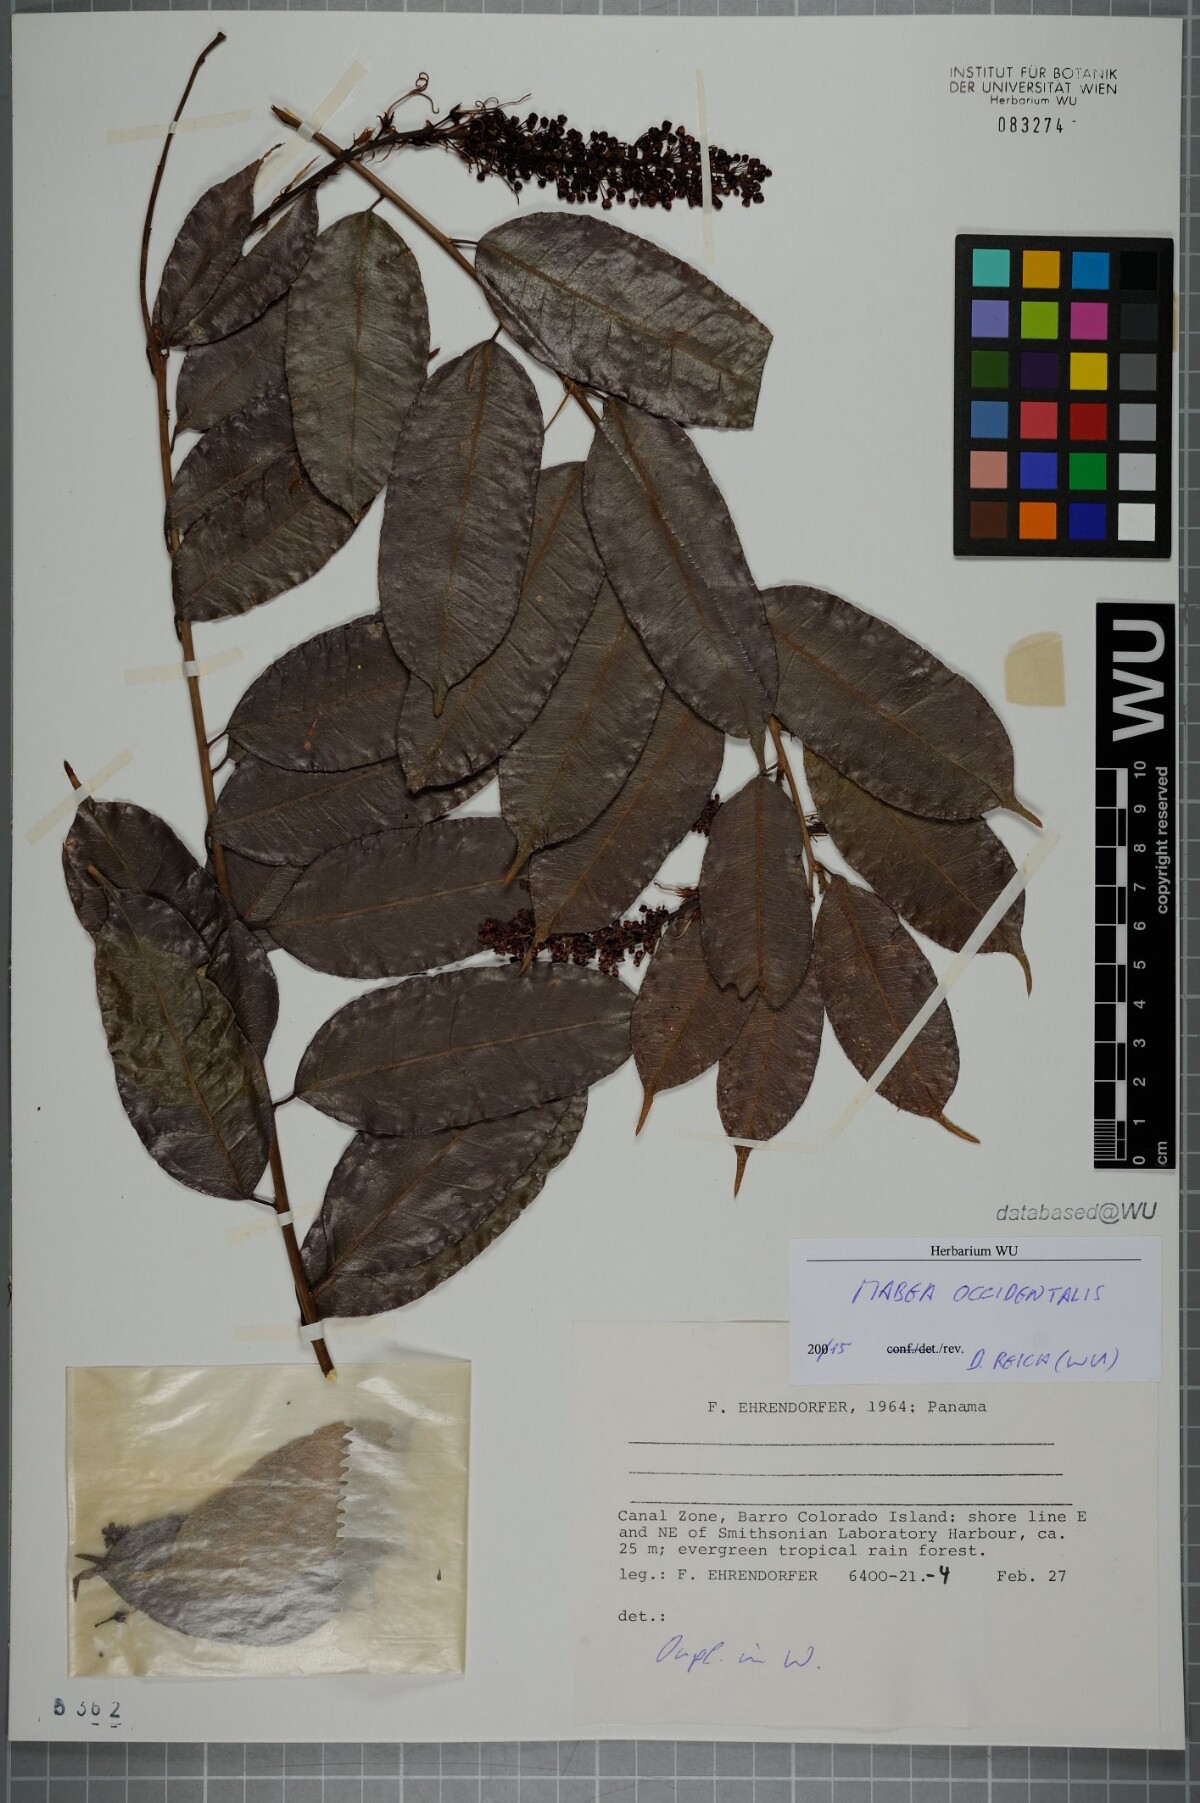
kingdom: Plantae
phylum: Tracheophyta
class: Magnoliopsida
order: Malpighiales
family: Euphorbiaceae
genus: Mabea
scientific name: Mabea occidentalis
